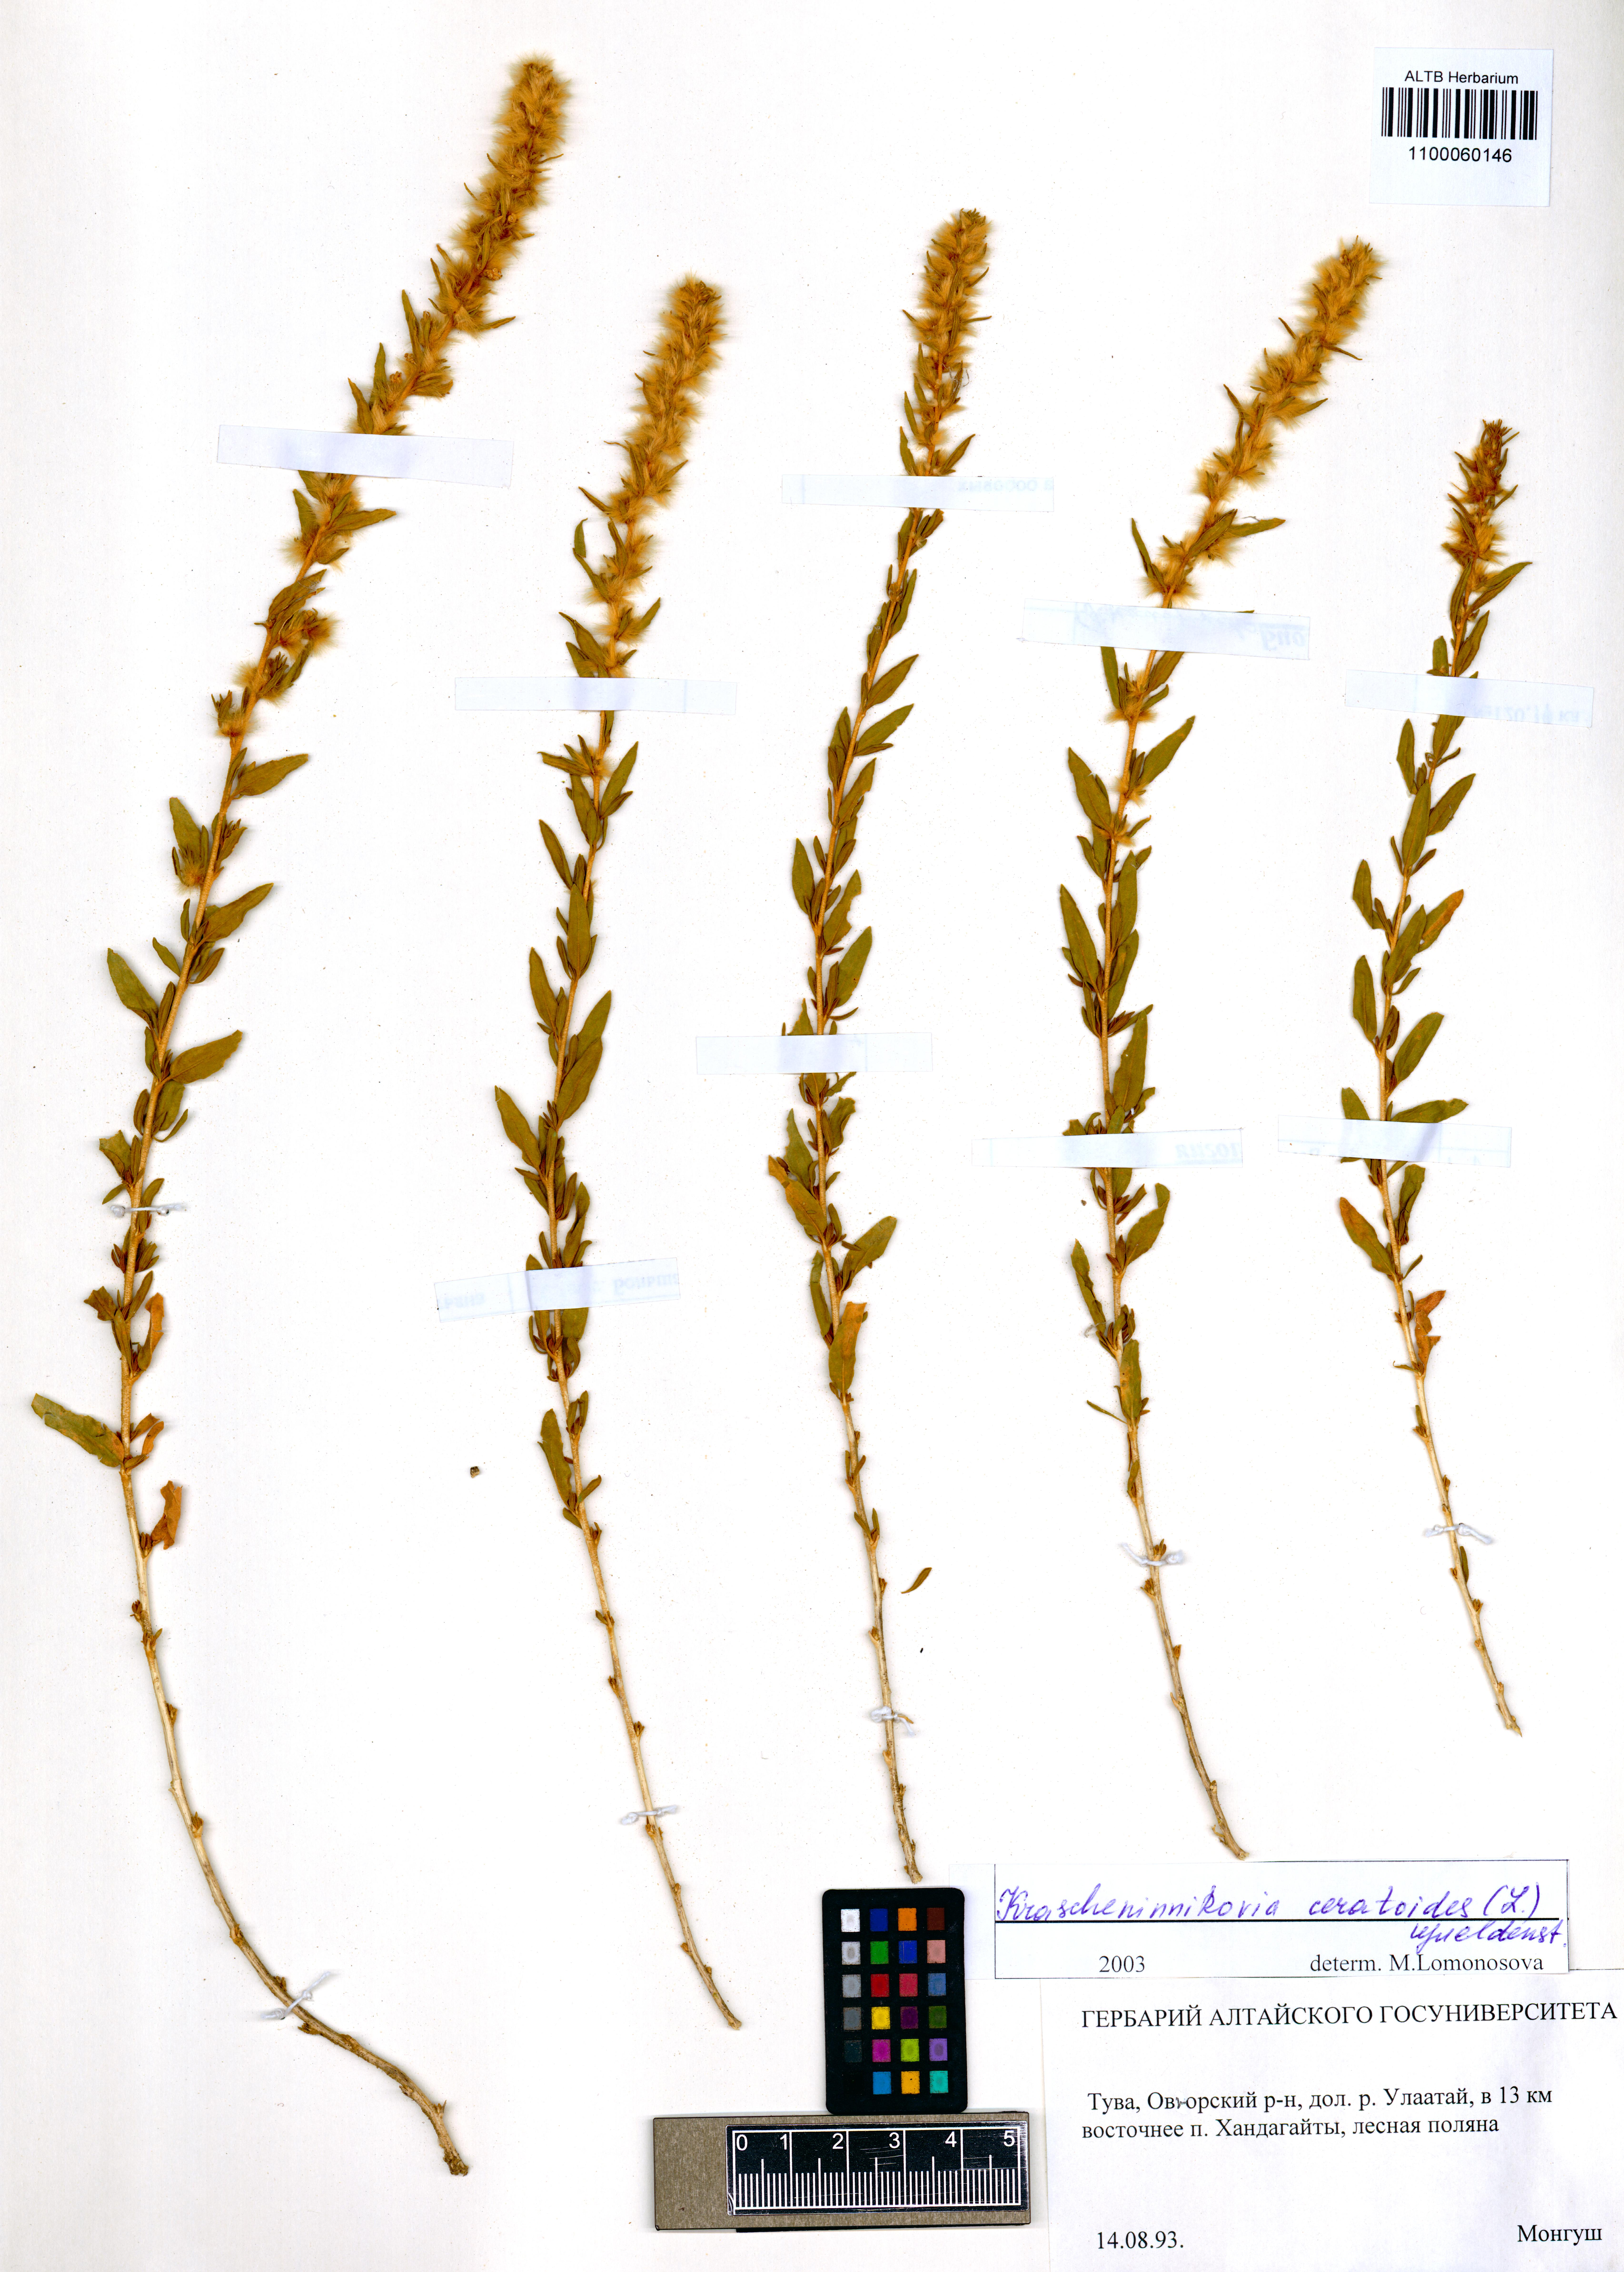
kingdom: Plantae
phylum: Tracheophyta
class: Magnoliopsida
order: Caryophyllales
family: Amaranthaceae
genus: Krascheninnikovia
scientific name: Krascheninnikovia ceratoides
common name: Pamirian winterfat
